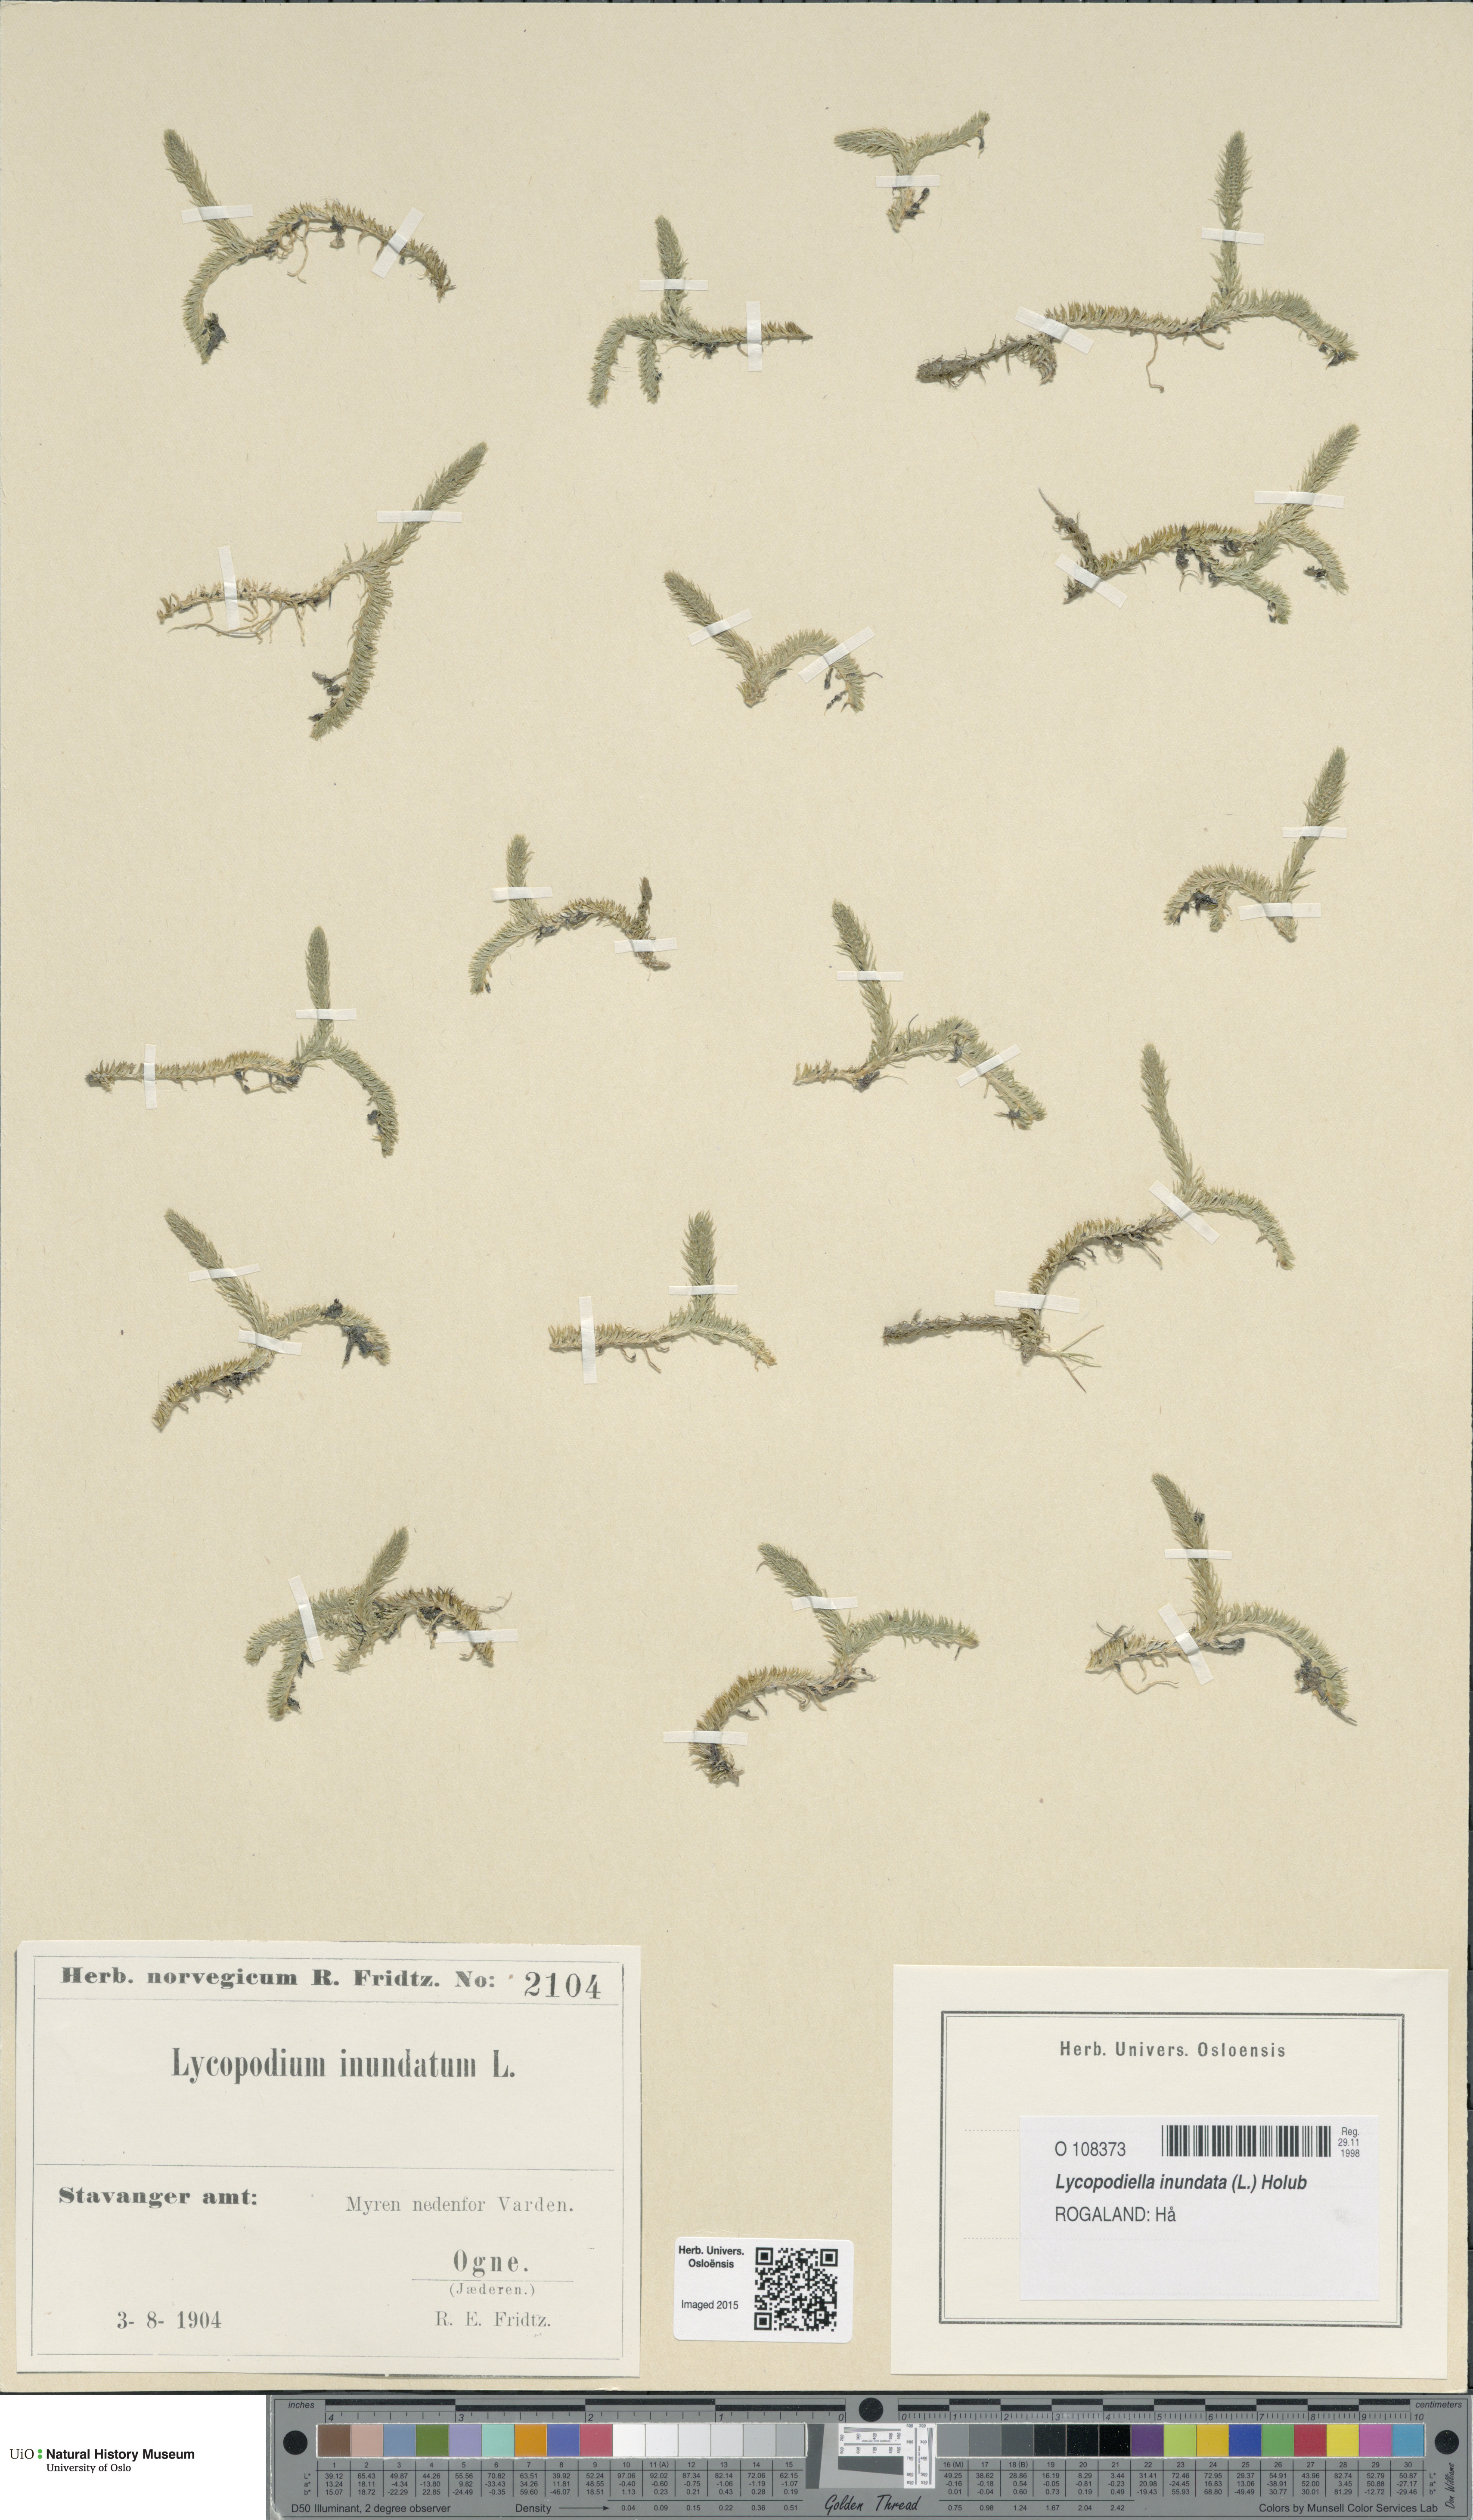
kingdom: Plantae
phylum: Tracheophyta
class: Lycopodiopsida
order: Lycopodiales
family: Lycopodiaceae
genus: Lycopodiella
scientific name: Lycopodiella inundata
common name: Marsh clubmoss
